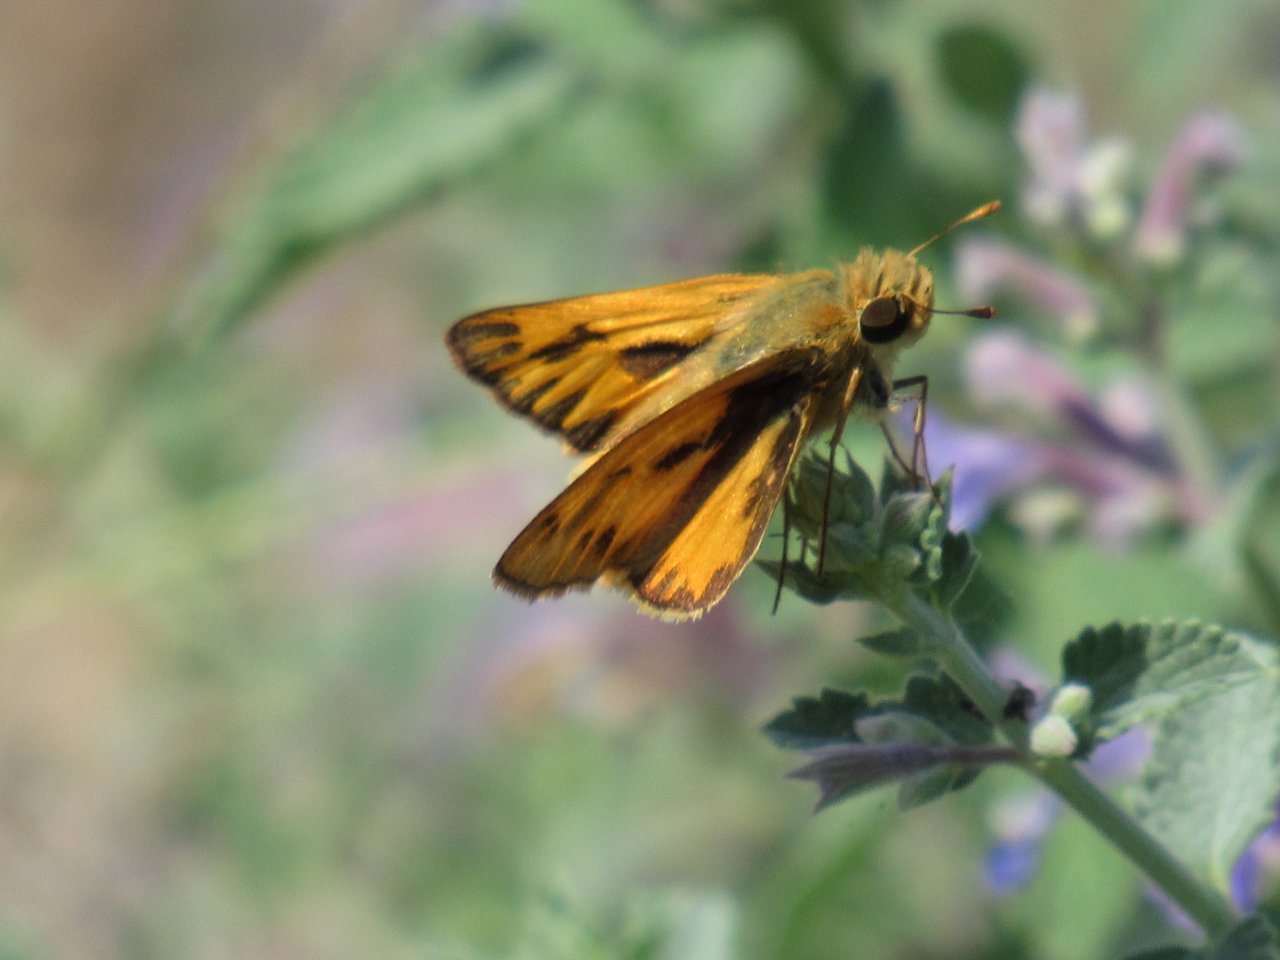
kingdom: Animalia
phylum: Arthropoda
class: Insecta
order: Lepidoptera
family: Hesperiidae
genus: Hylephila
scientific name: Hylephila phyleus
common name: Fiery Skipper
